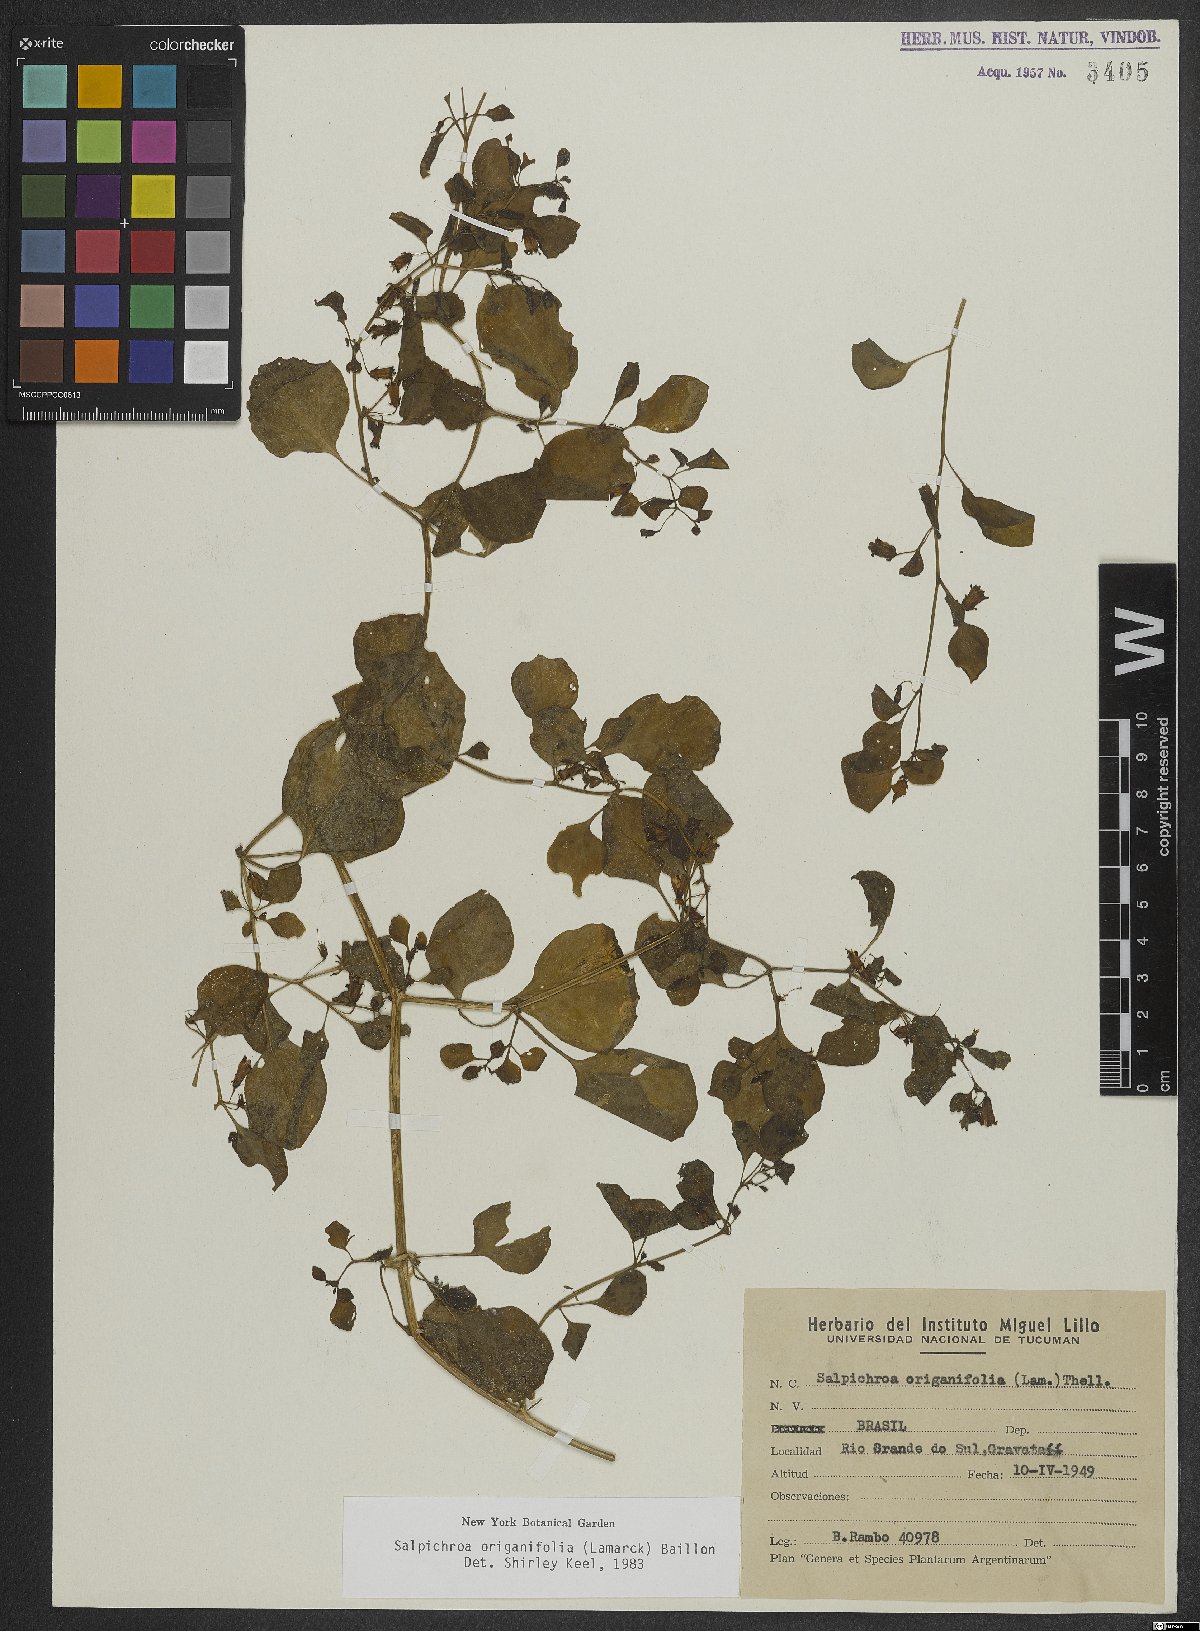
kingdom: Plantae
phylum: Tracheophyta
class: Magnoliopsida
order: Solanales
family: Solanaceae
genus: Salpichroa
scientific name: Salpichroa origanifolia
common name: Lily-of-the-valley-vine
